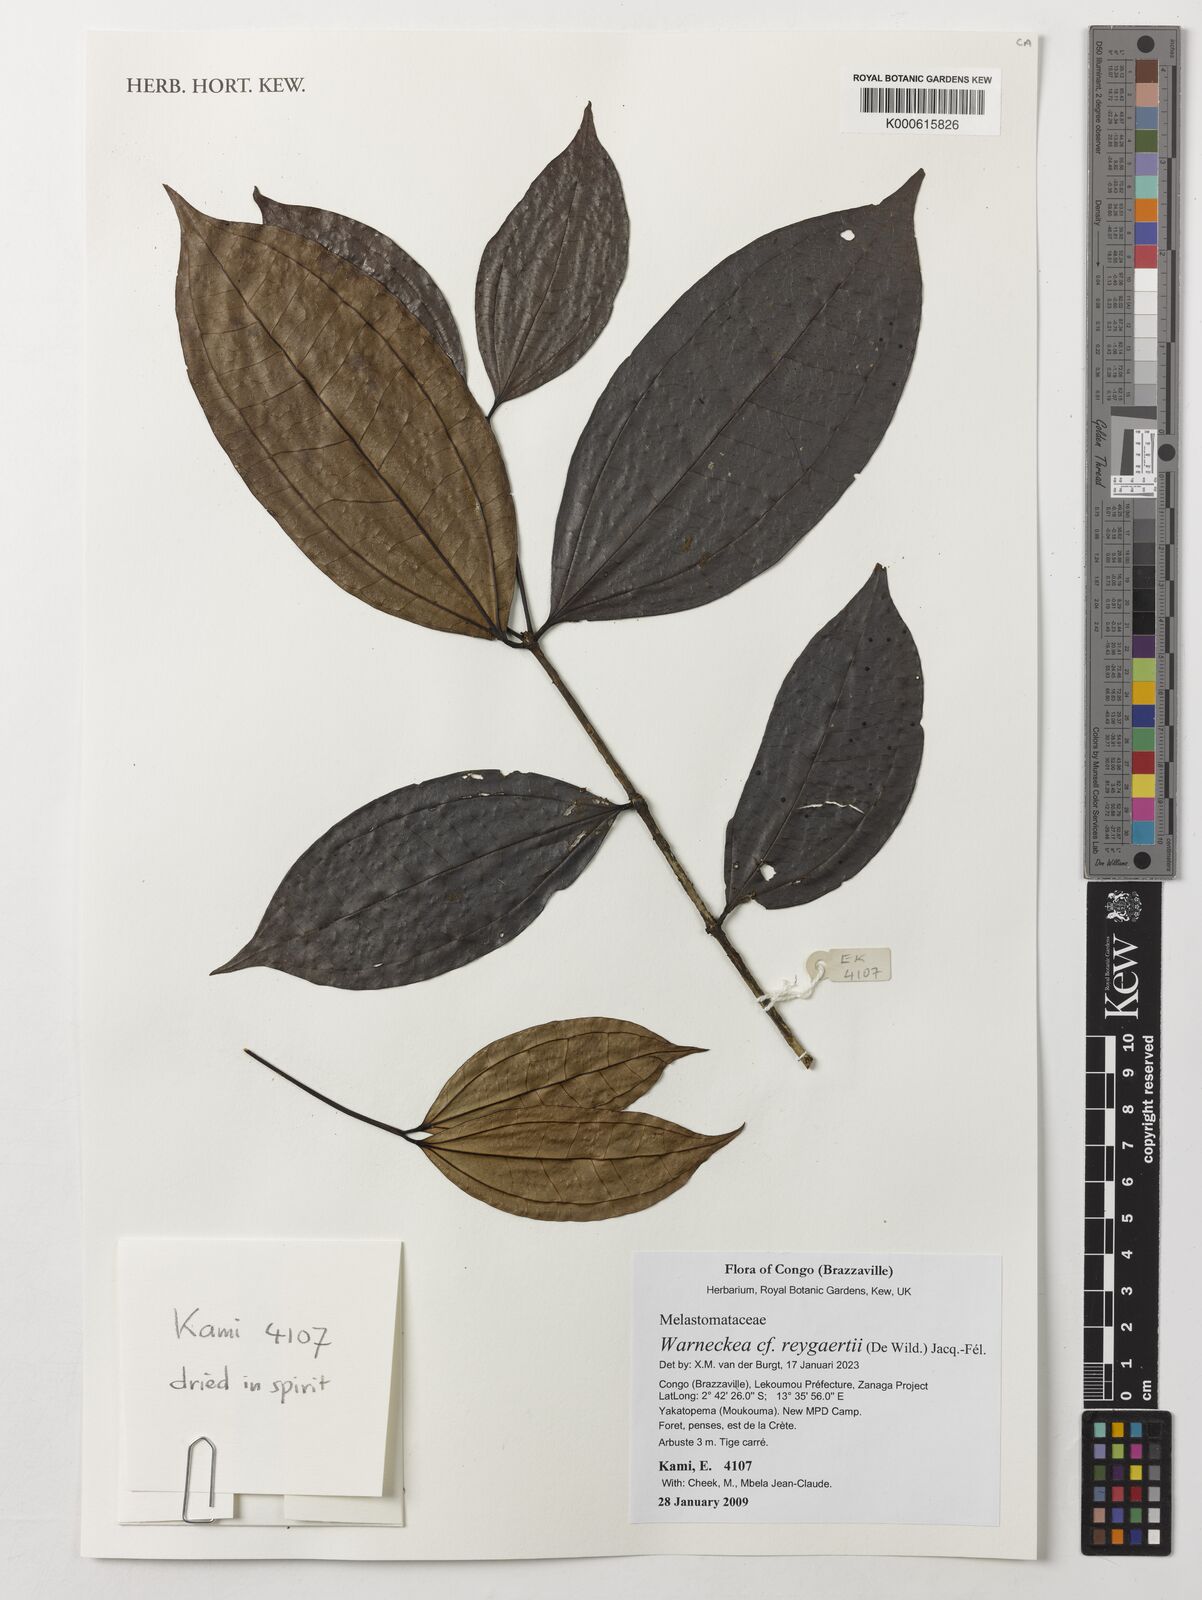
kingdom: Plantae
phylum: Tracheophyta
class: Magnoliopsida
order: Myrtales
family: Melastomataceae
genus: Warneckea
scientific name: Warneckea reygaertii
